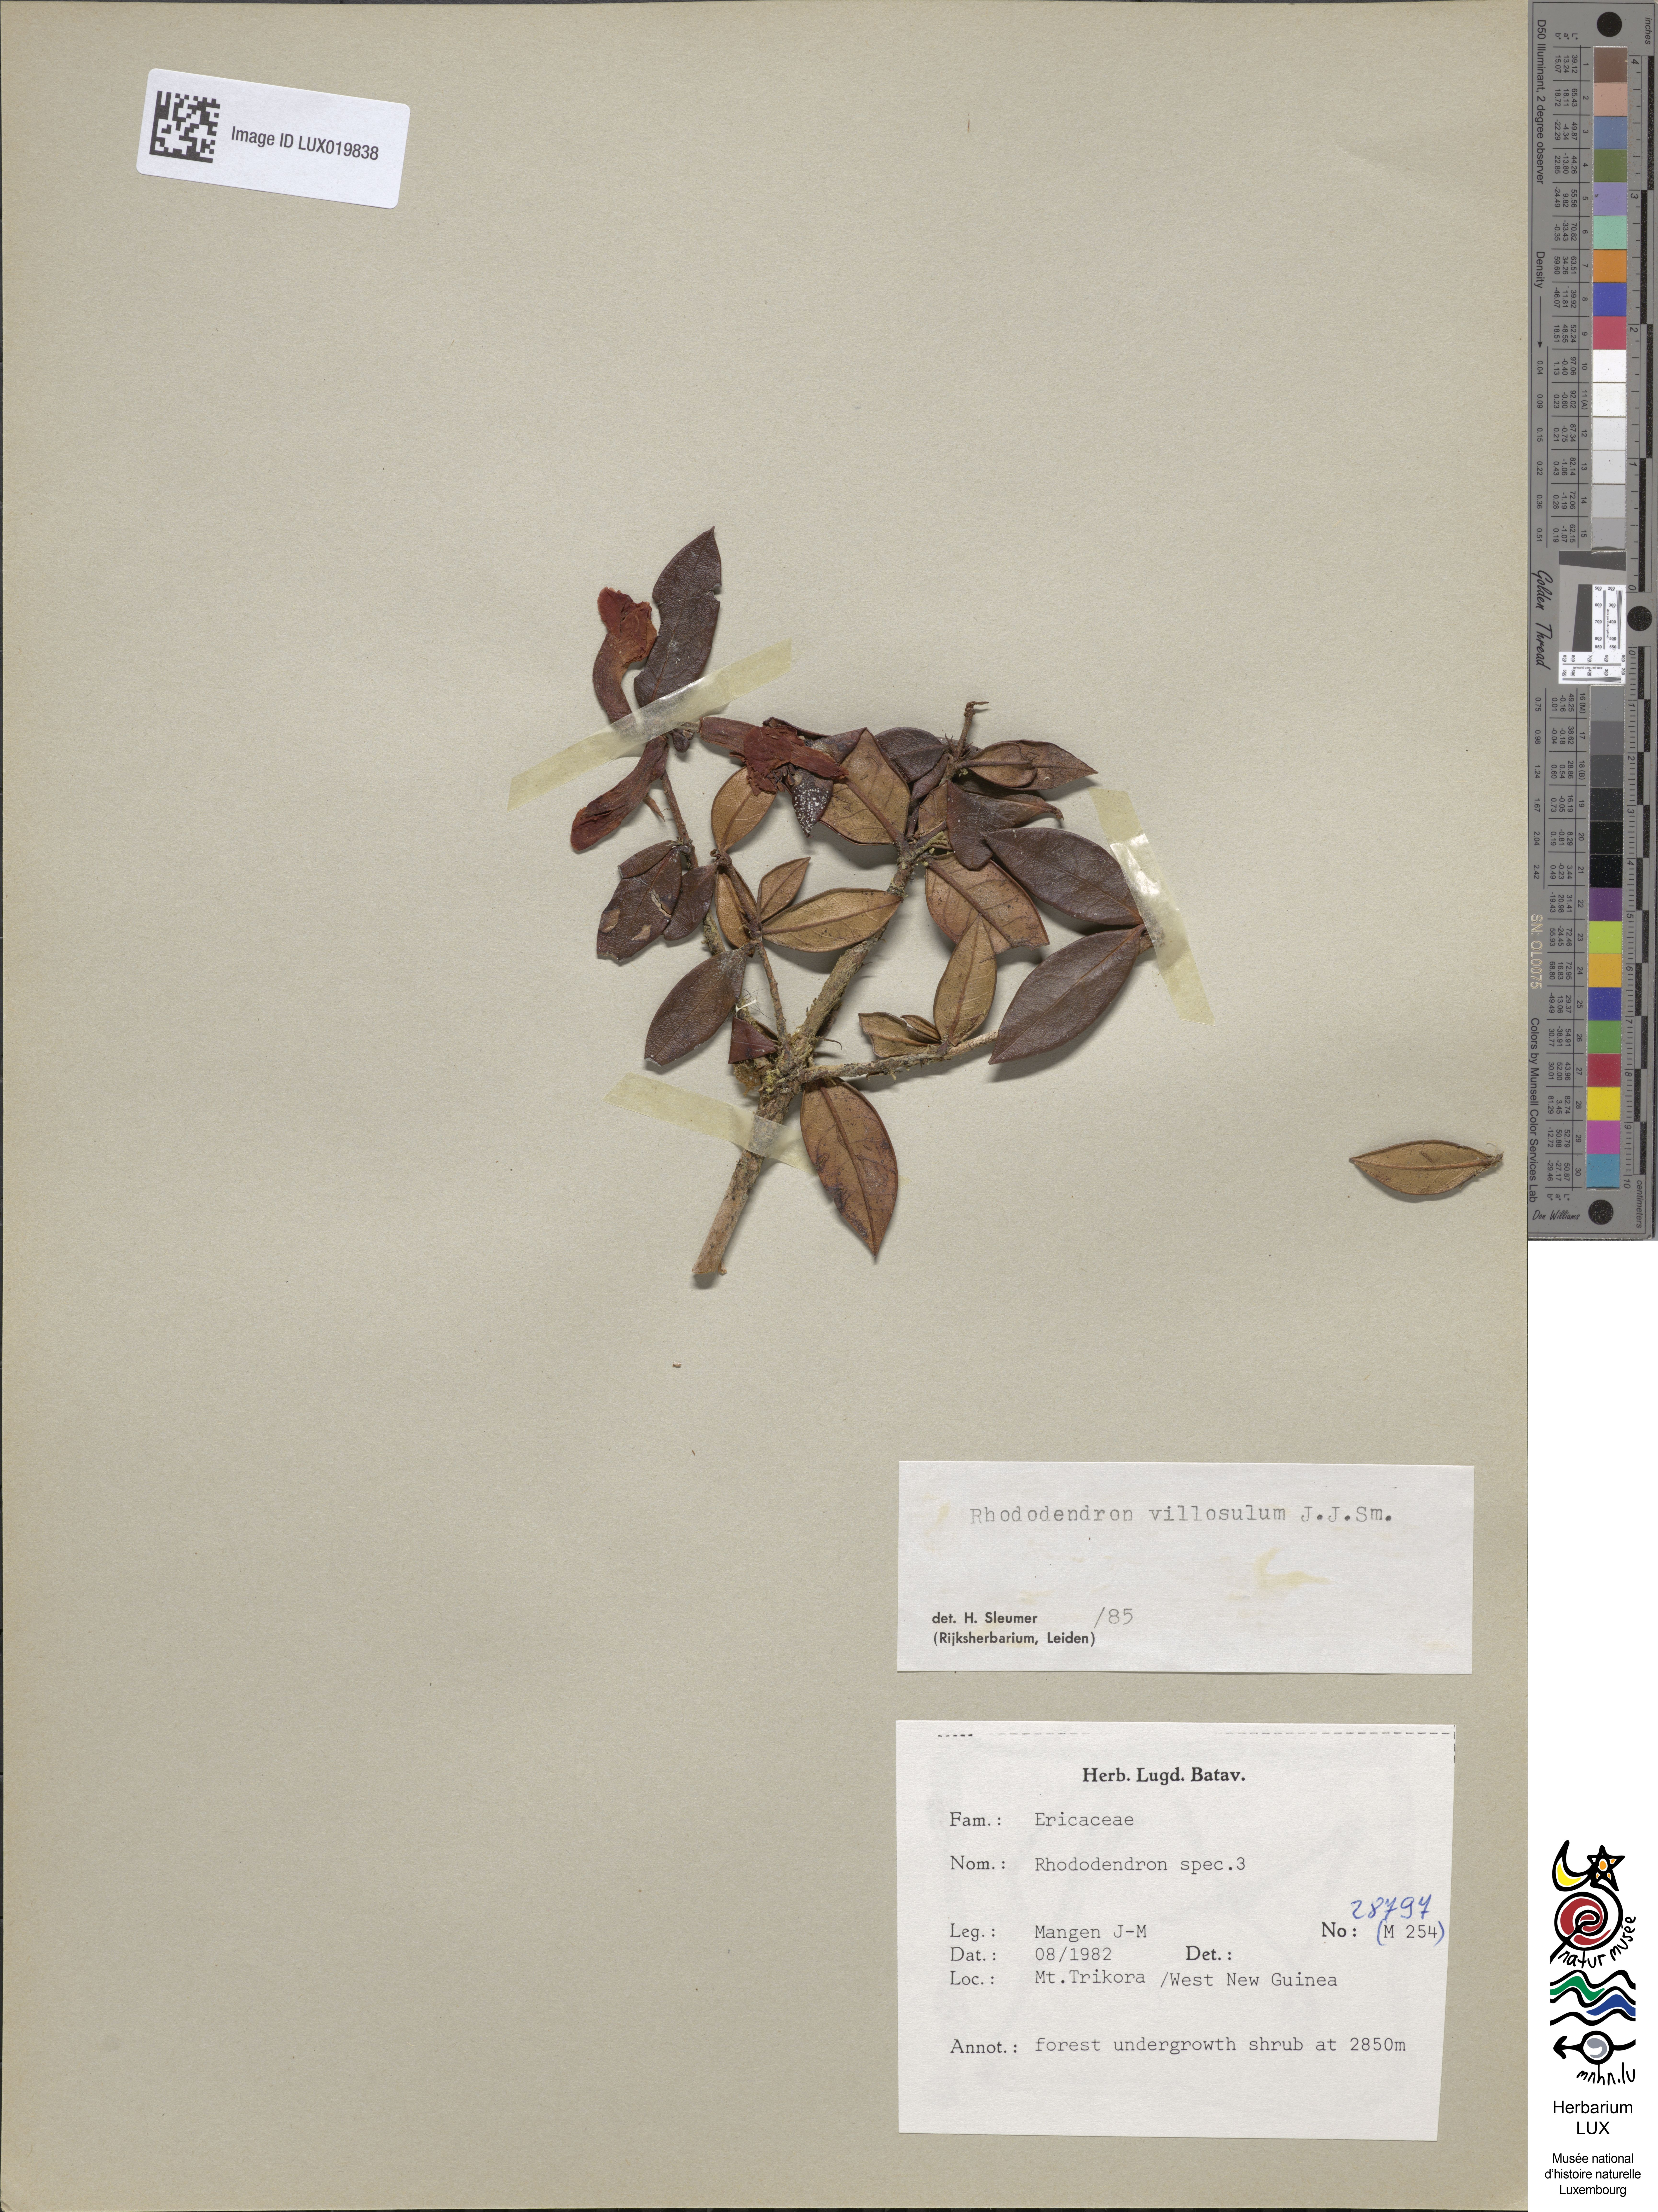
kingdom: Plantae
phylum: Tracheophyta
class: Magnoliopsida
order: Ericales
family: Ericaceae
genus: Rhododendron
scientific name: Rhododendron
